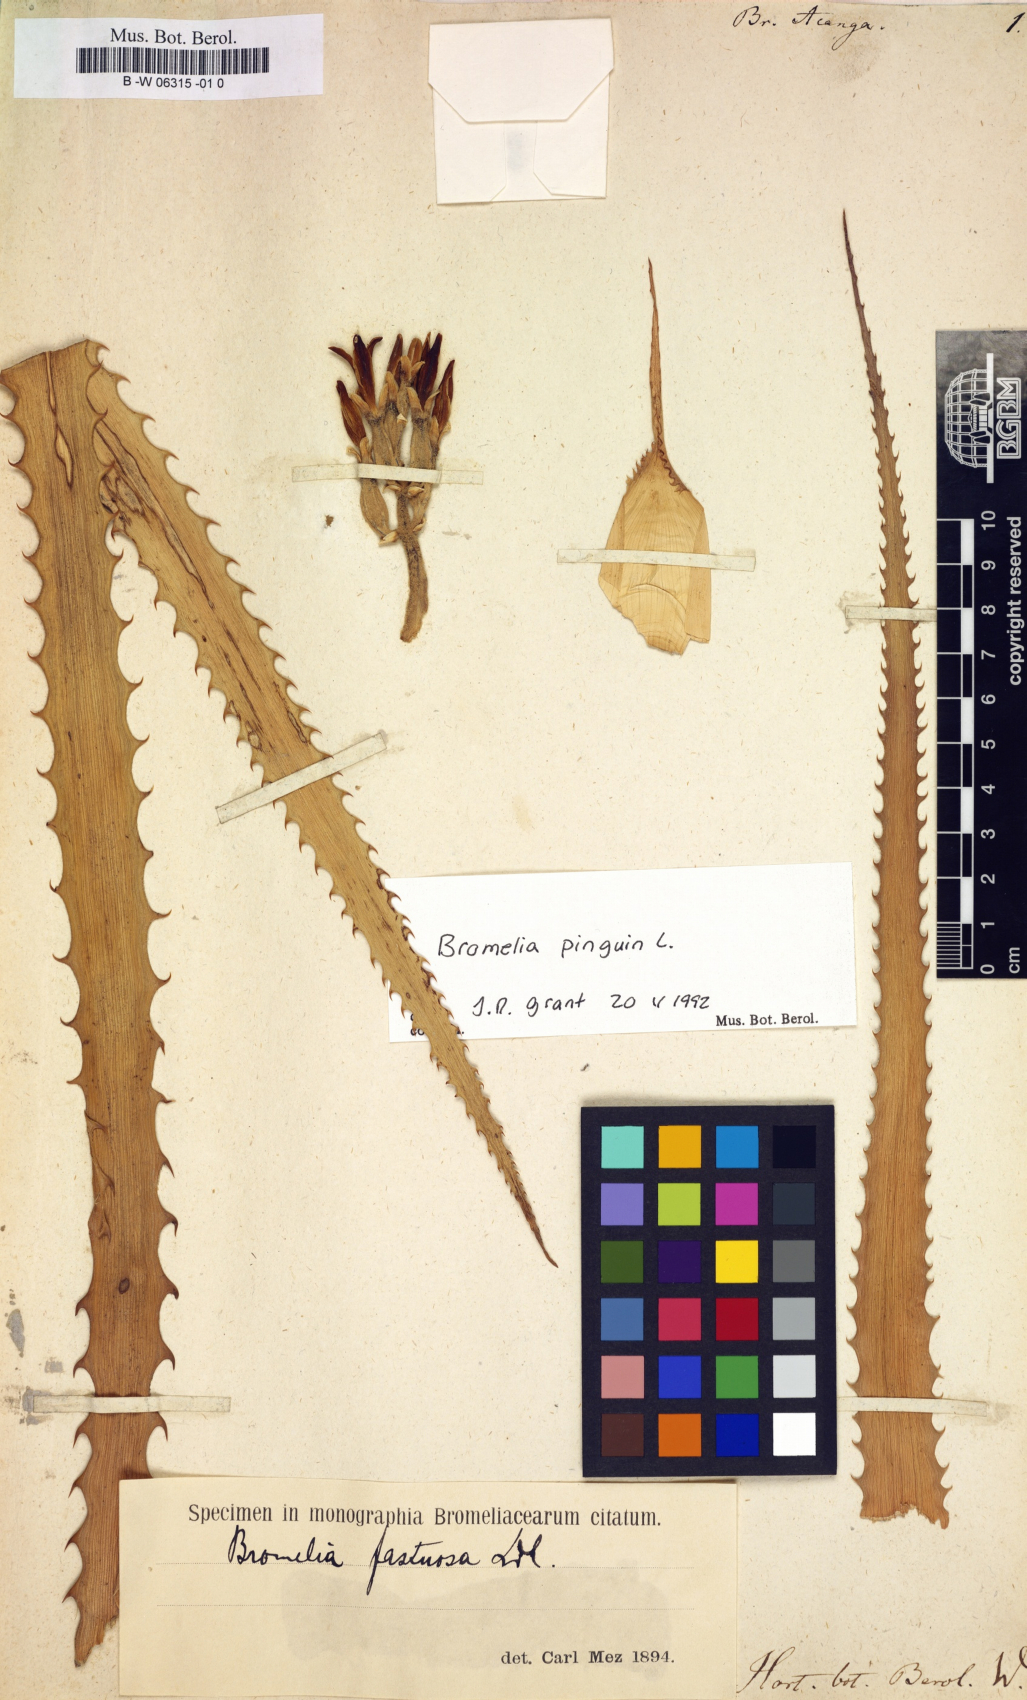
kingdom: Plantae
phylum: Tracheophyta
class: Liliopsida
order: Poales
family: Bromeliaceae
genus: Bromelia
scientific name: Bromelia acanga
